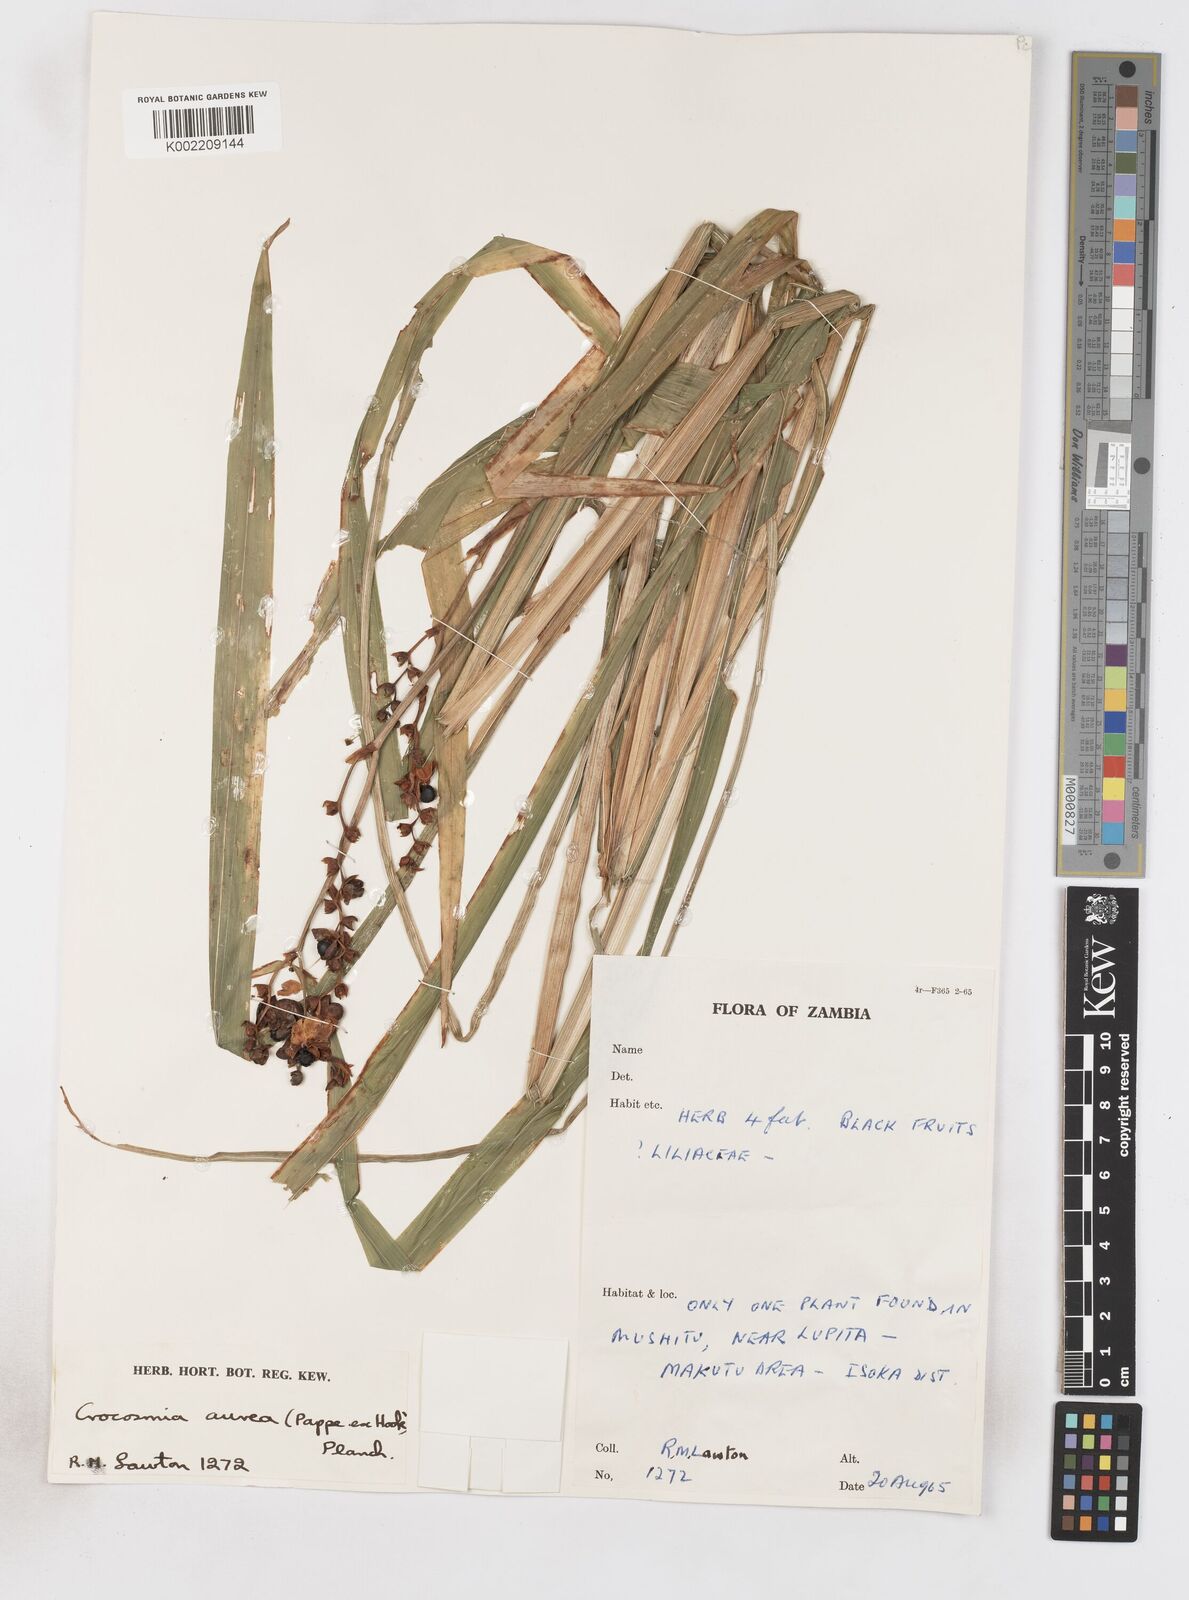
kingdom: Plantae
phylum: Tracheophyta
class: Liliopsida
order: Asparagales
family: Iridaceae
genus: Crocosmia
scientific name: Crocosmia aurea
